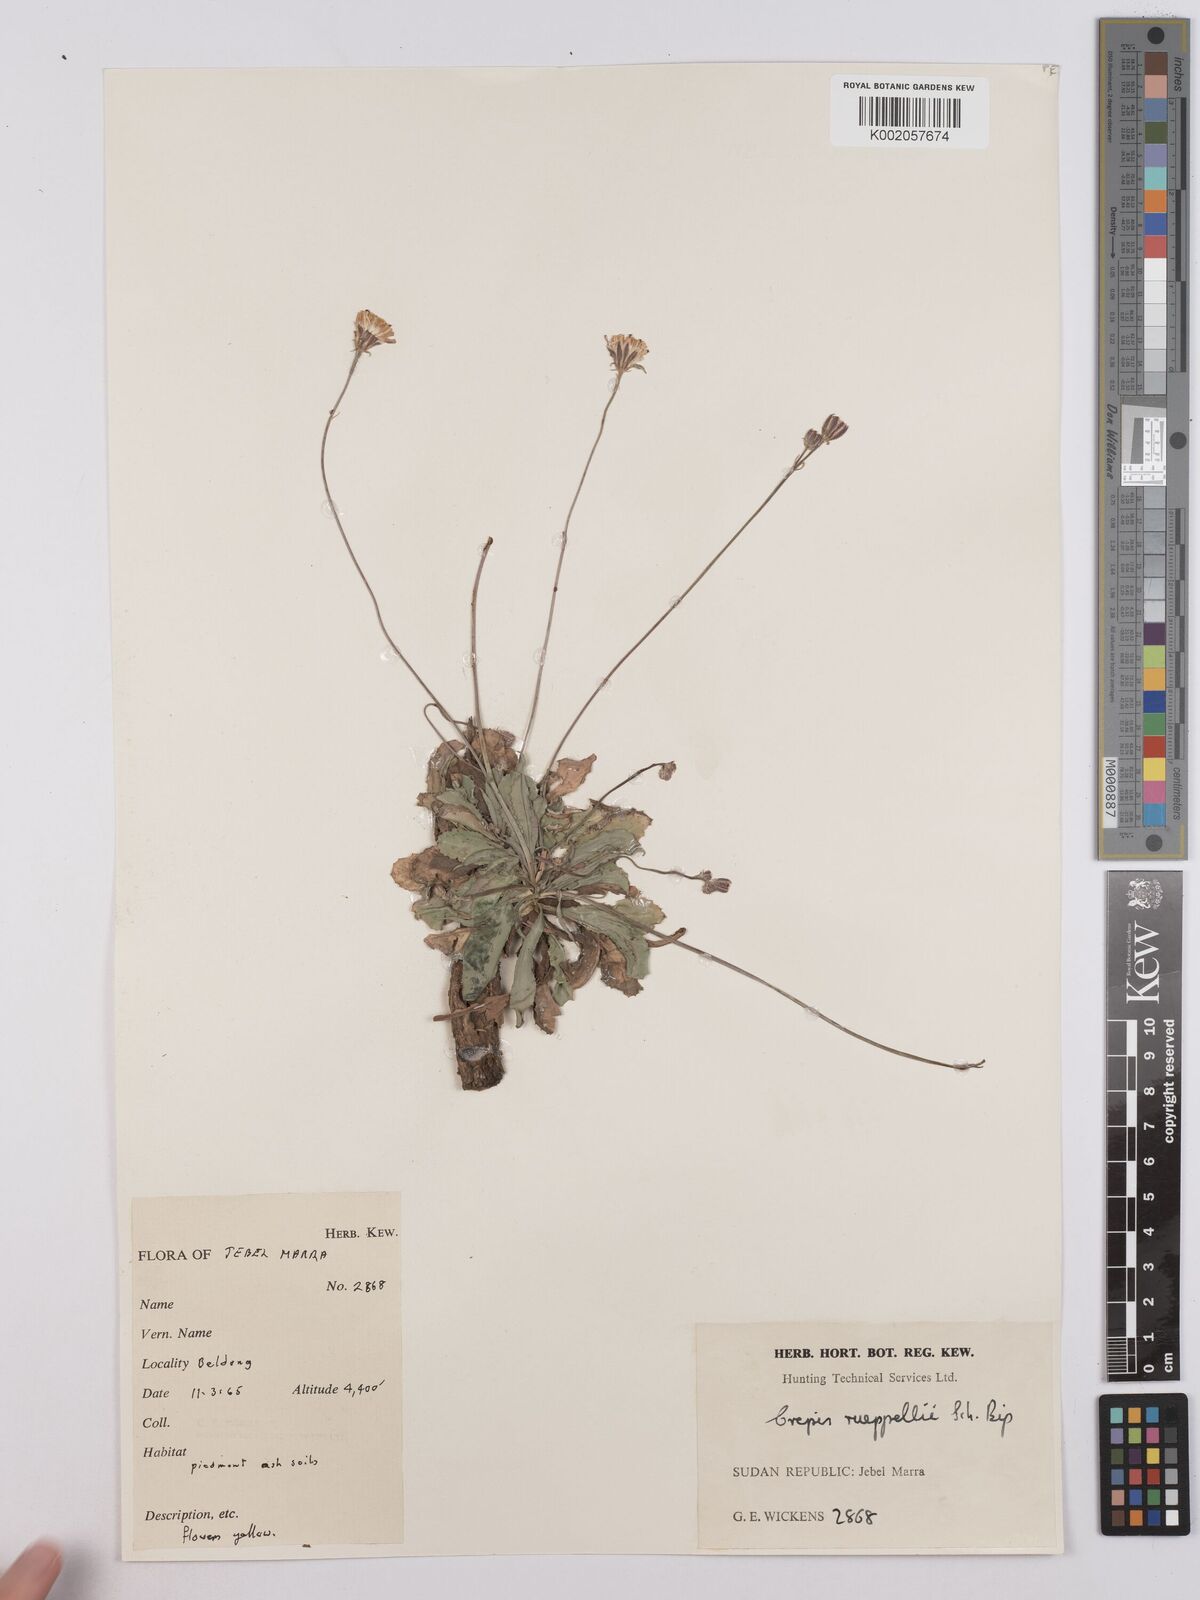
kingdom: Plantae
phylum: Tracheophyta
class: Magnoliopsida
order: Asterales
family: Asteraceae
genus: Crepis
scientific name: Crepis rueppellii
